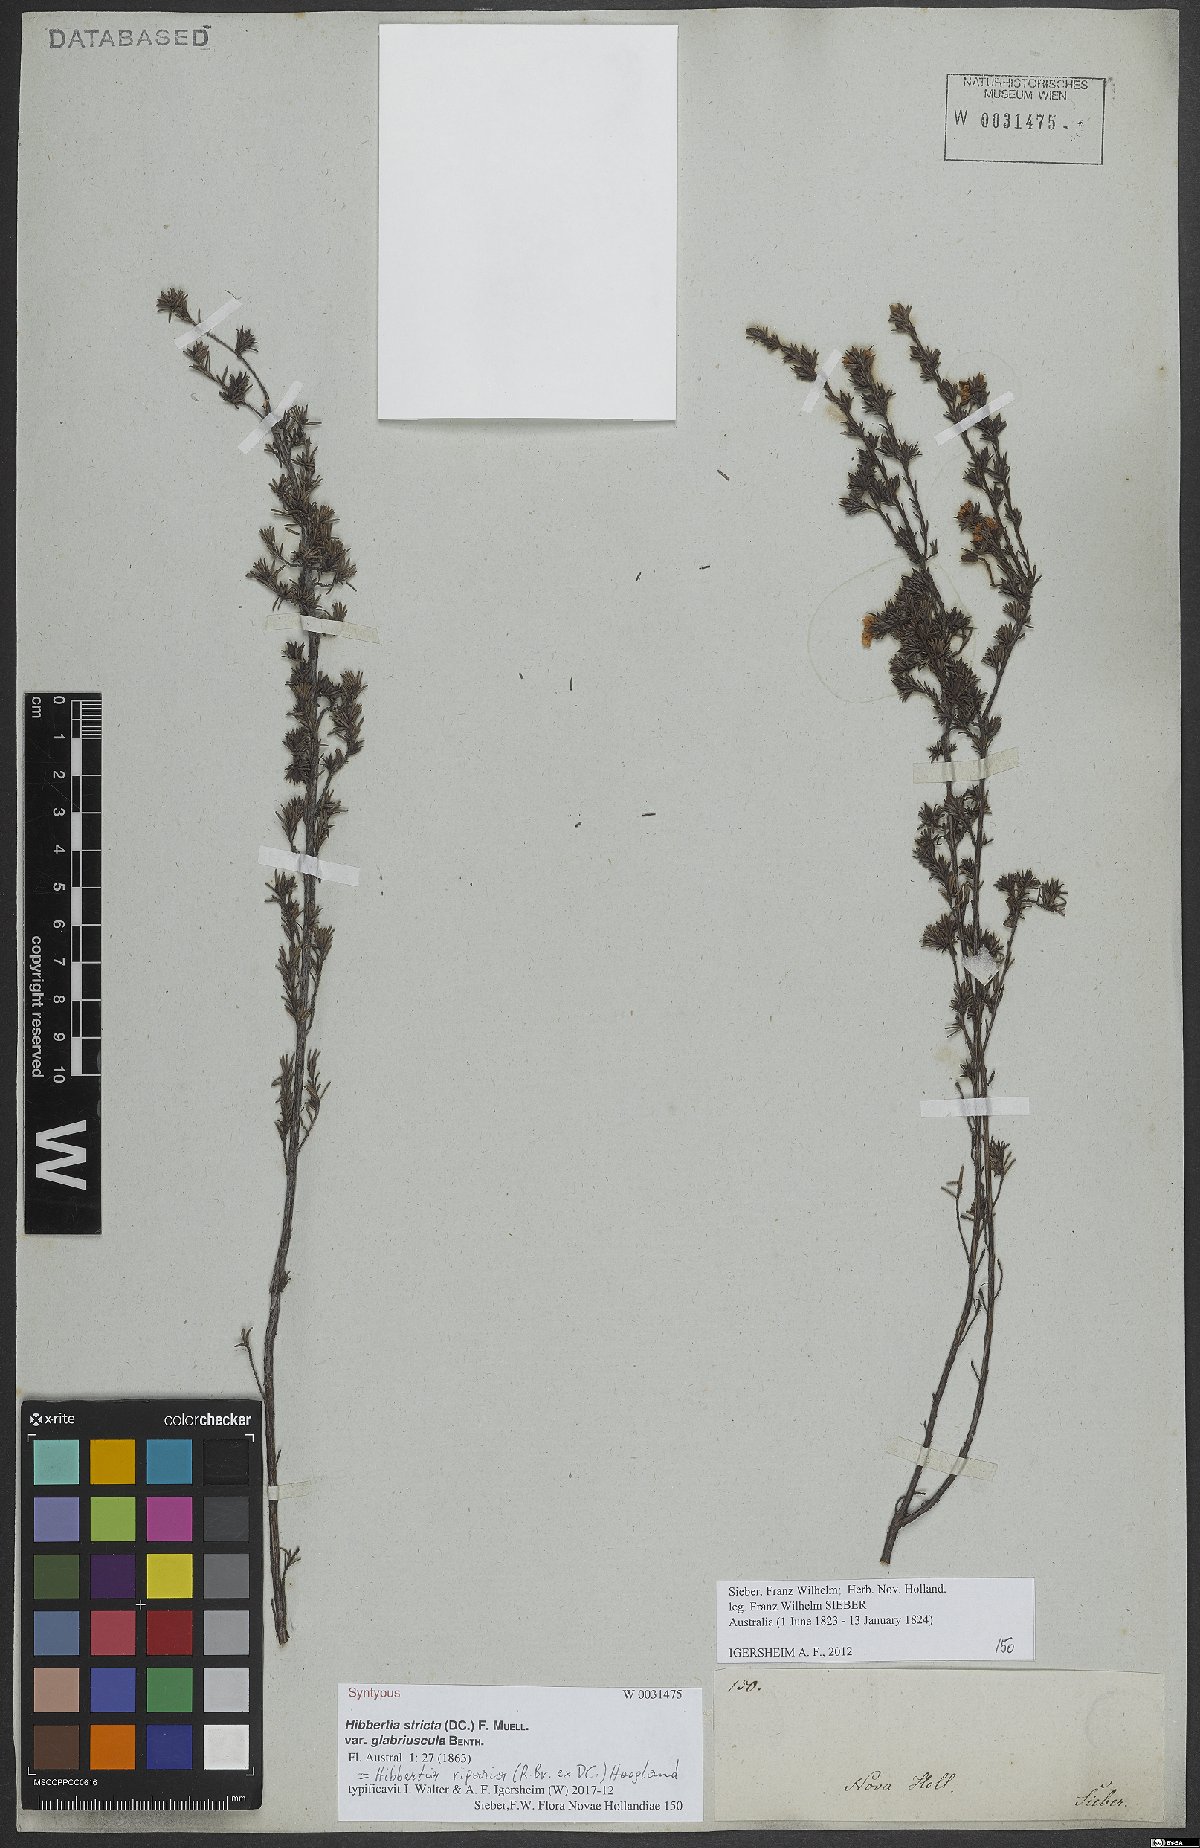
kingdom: Plantae
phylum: Tracheophyta
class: Magnoliopsida
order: Dilleniales
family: Dilleniaceae
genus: Hibbertia
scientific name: Hibbertia riparia
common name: Erect guinea-flower
